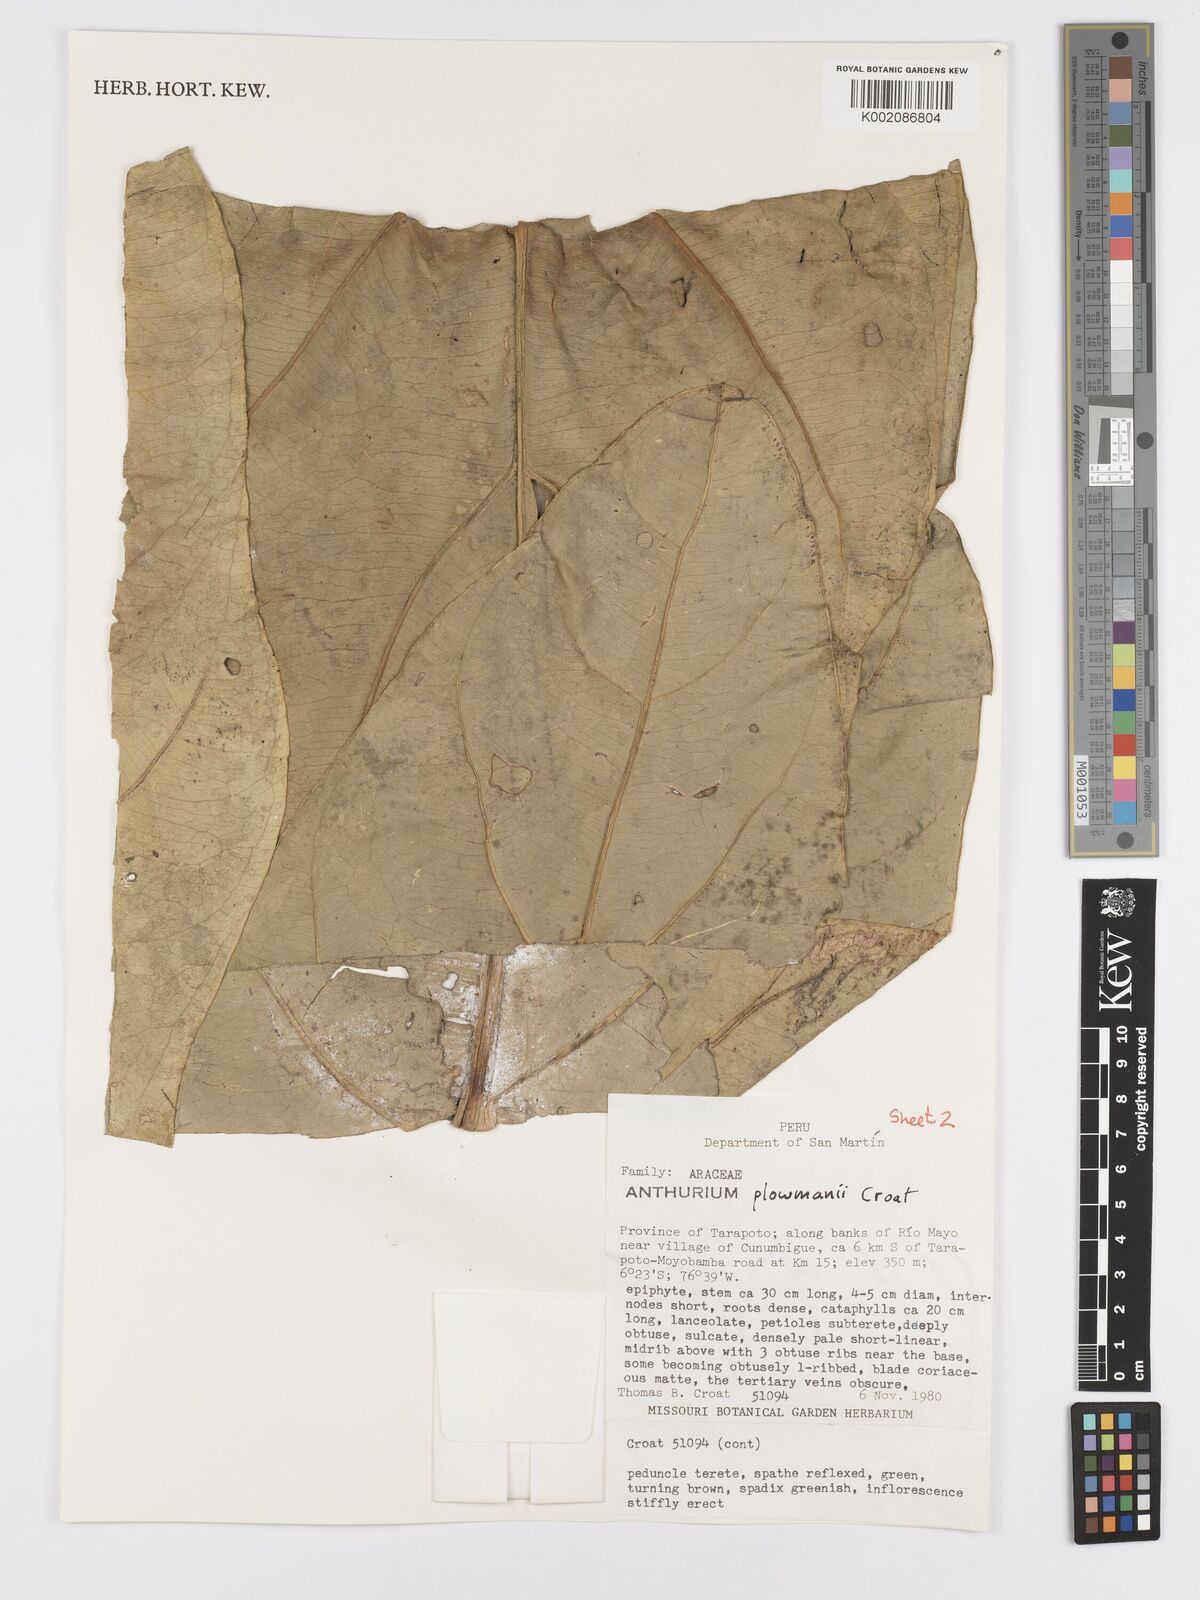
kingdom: Plantae
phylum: Tracheophyta
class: Liliopsida
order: Alismatales
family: Araceae
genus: Anthurium
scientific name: Anthurium plowmanii
